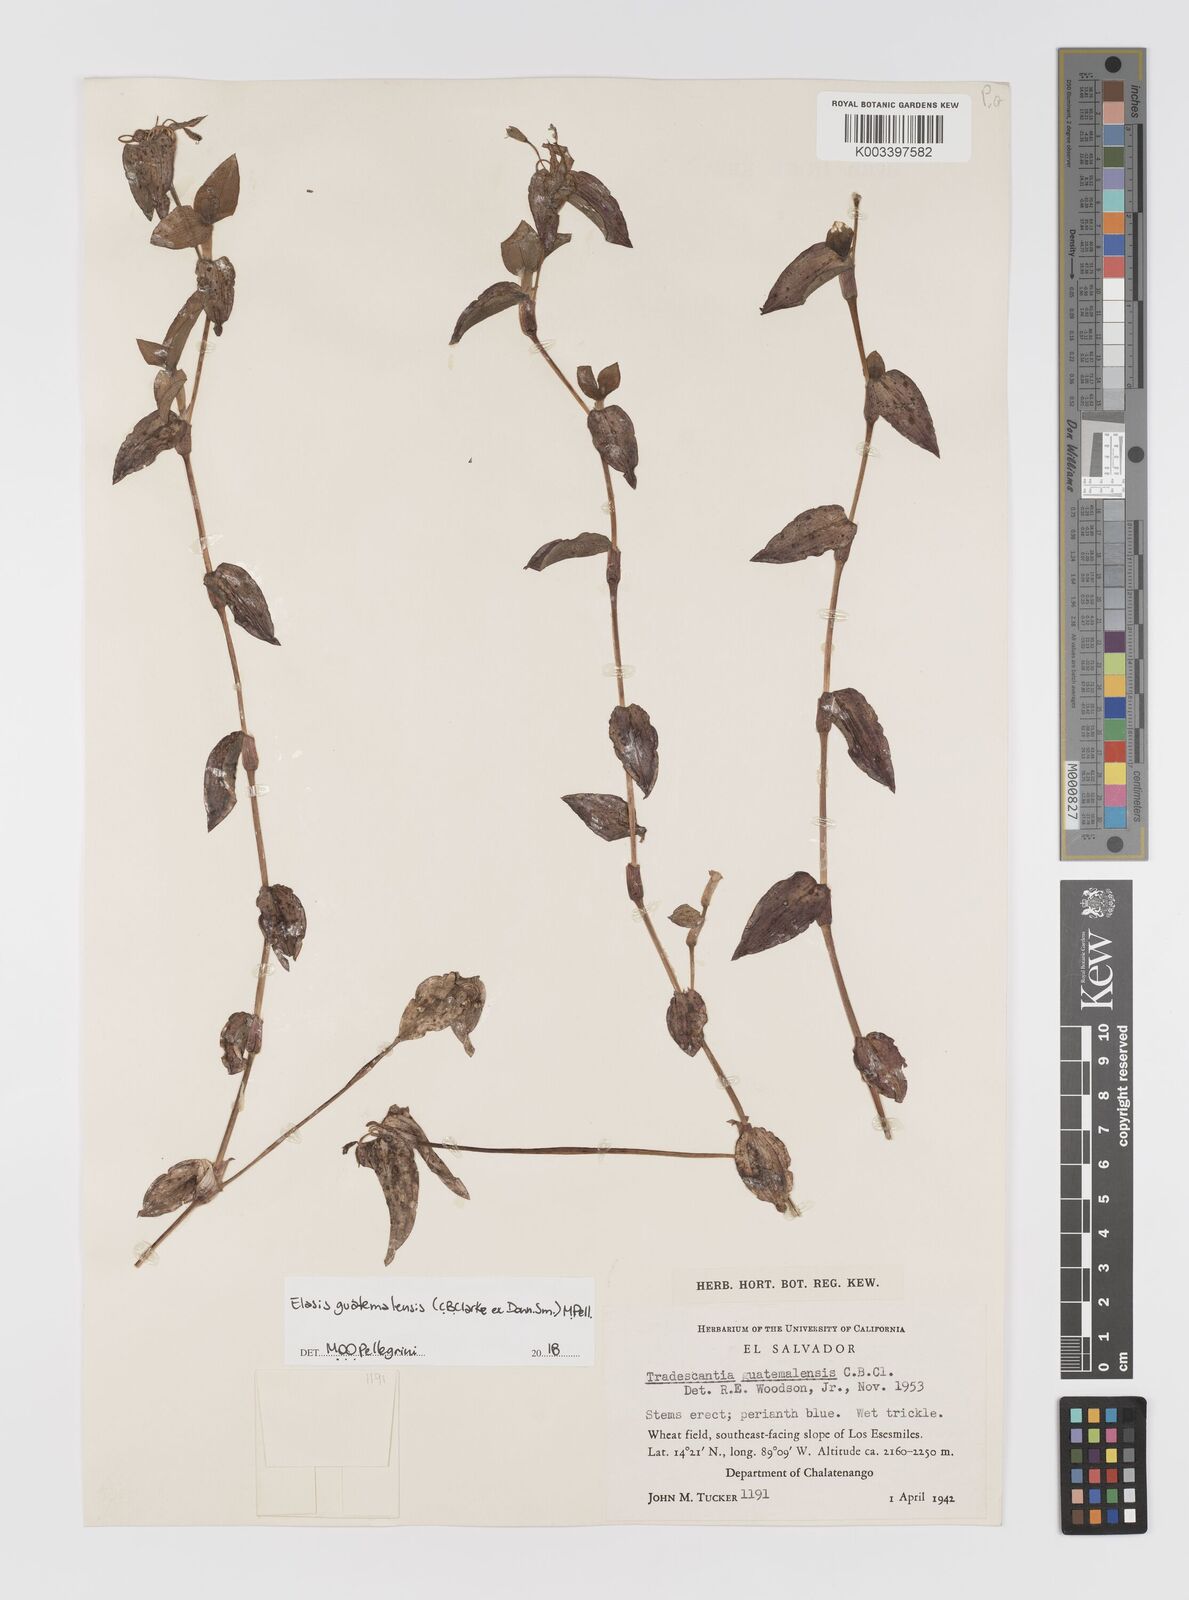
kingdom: Plantae
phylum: Tracheophyta
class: Liliopsida
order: Commelinales
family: Commelinaceae
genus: Elasis
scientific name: Elasis guatemalensis
